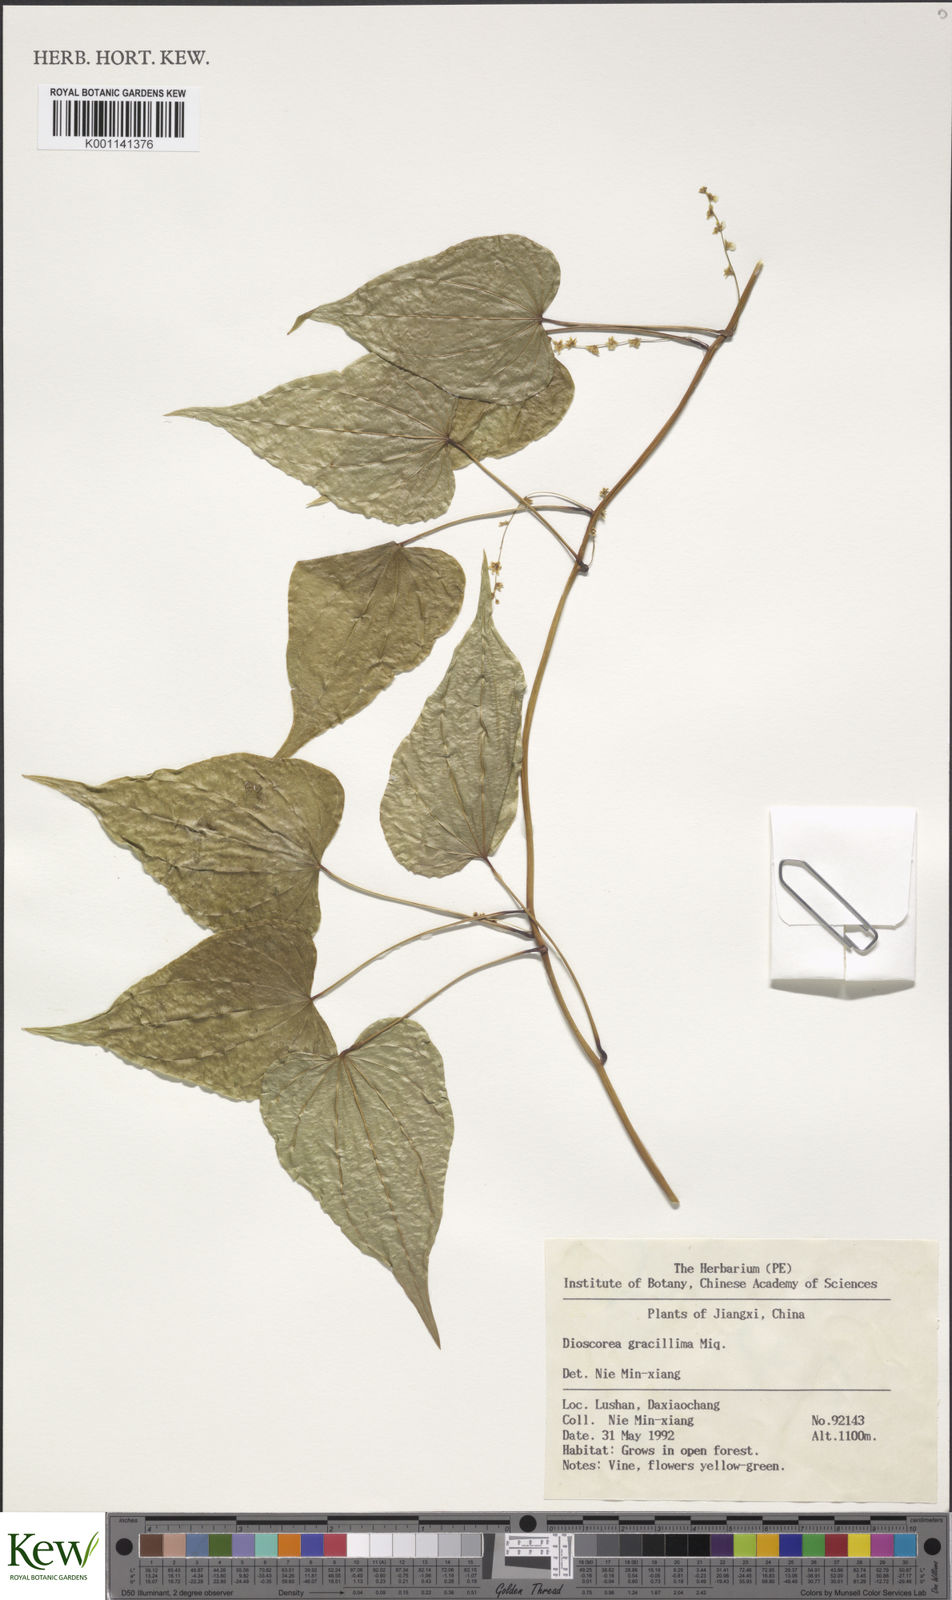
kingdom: Plantae
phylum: Tracheophyta
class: Liliopsida
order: Dioscoreales
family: Dioscoreaceae
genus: Dioscorea
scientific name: Dioscorea gracillima
